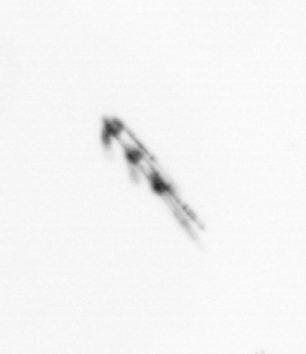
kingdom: Chromista
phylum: Myzozoa
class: Dinophyceae
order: Gonyaulacales
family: Ceratiaceae
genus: Ceratium
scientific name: Ceratium
